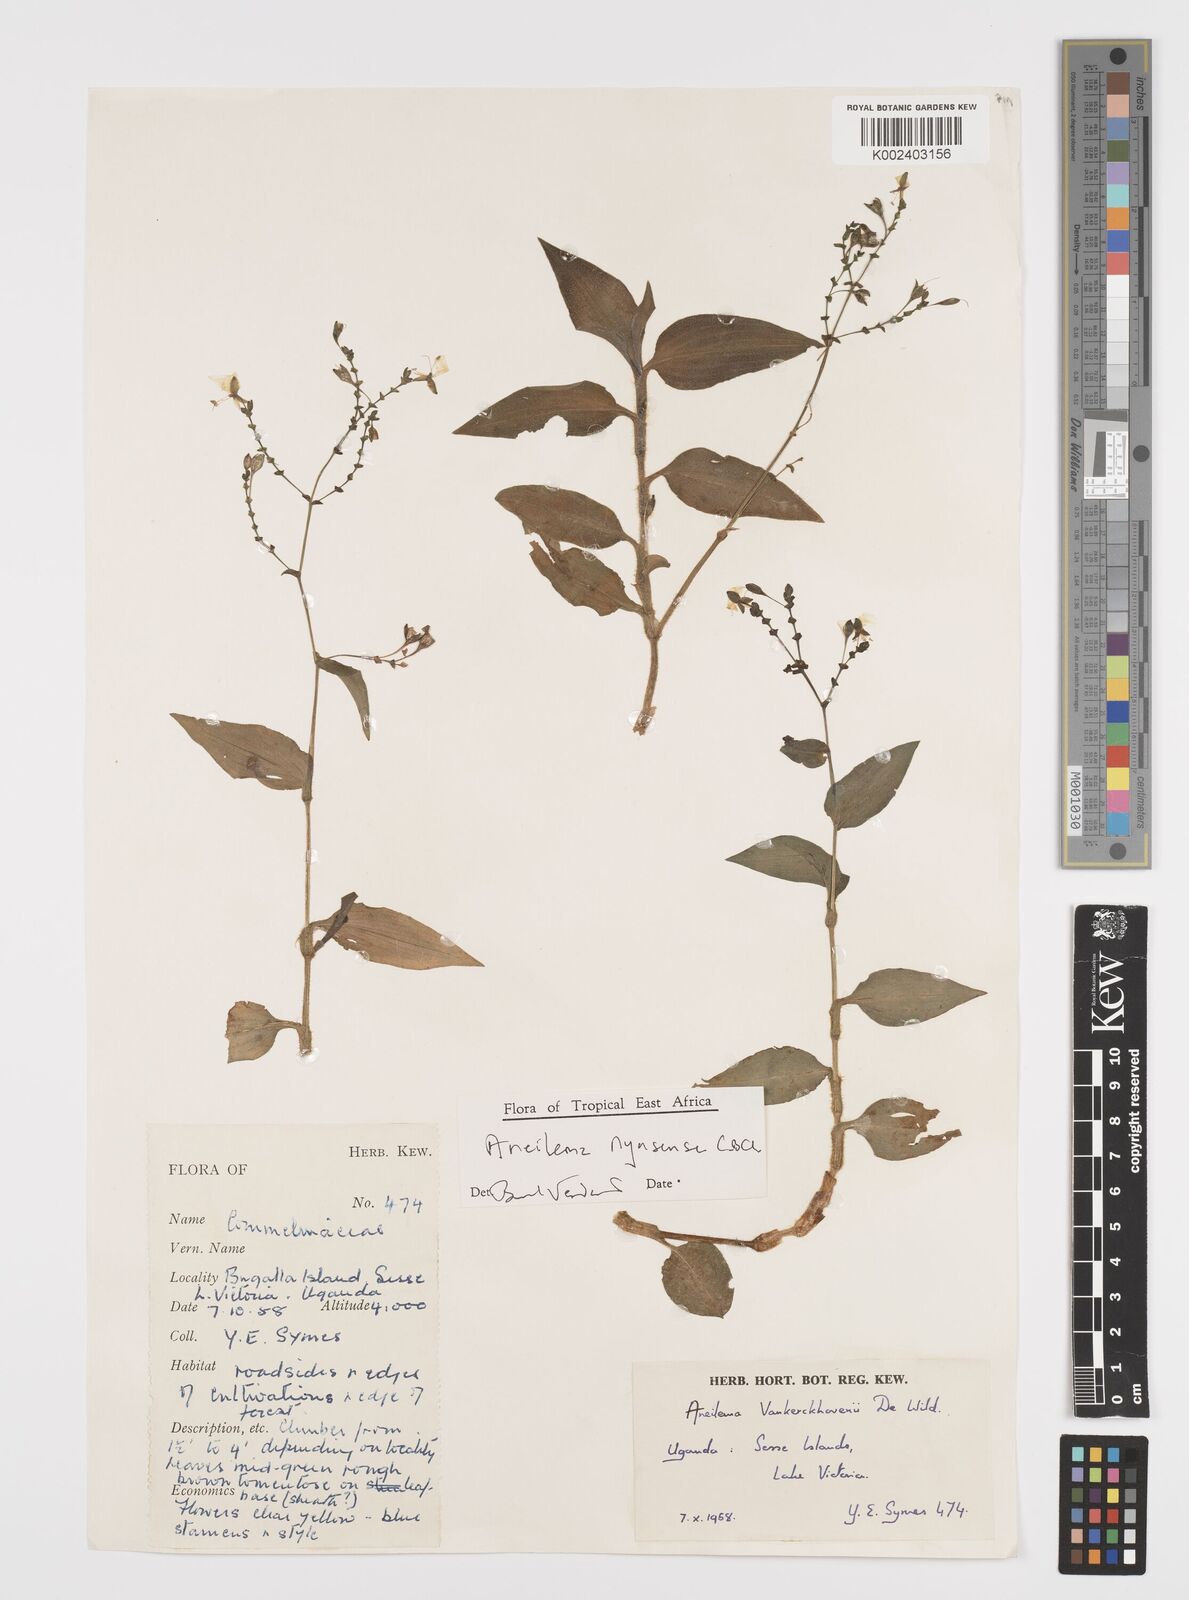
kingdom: Plantae
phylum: Tracheophyta
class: Liliopsida
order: Commelinales
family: Commelinaceae
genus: Aneilema
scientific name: Aneilema nyasense
